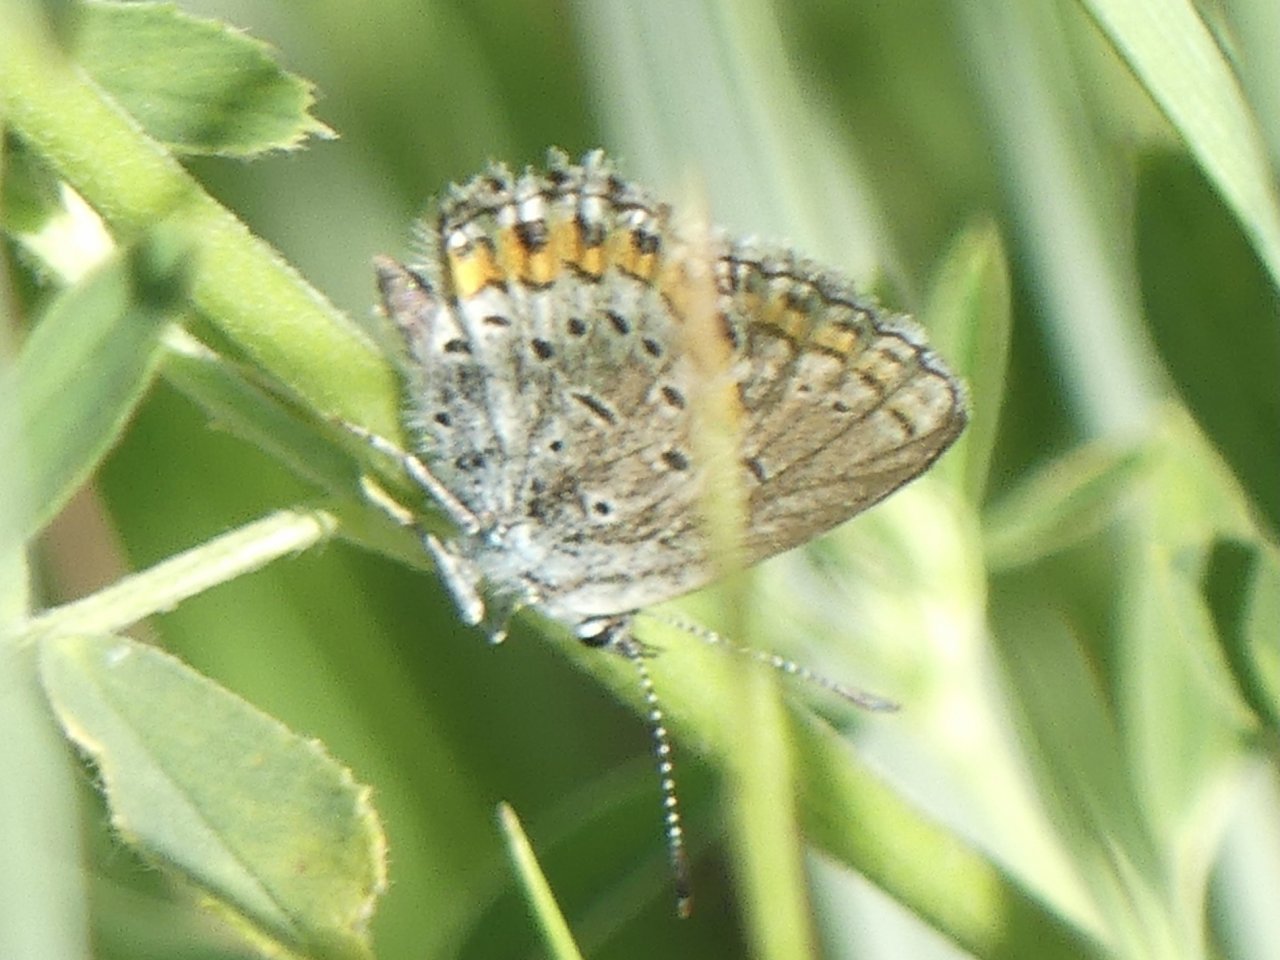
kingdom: Animalia
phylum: Arthropoda
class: Insecta
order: Lepidoptera
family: Lycaenidae
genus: Lycaeides
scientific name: Lycaeides melissa
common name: Melissa Blue
